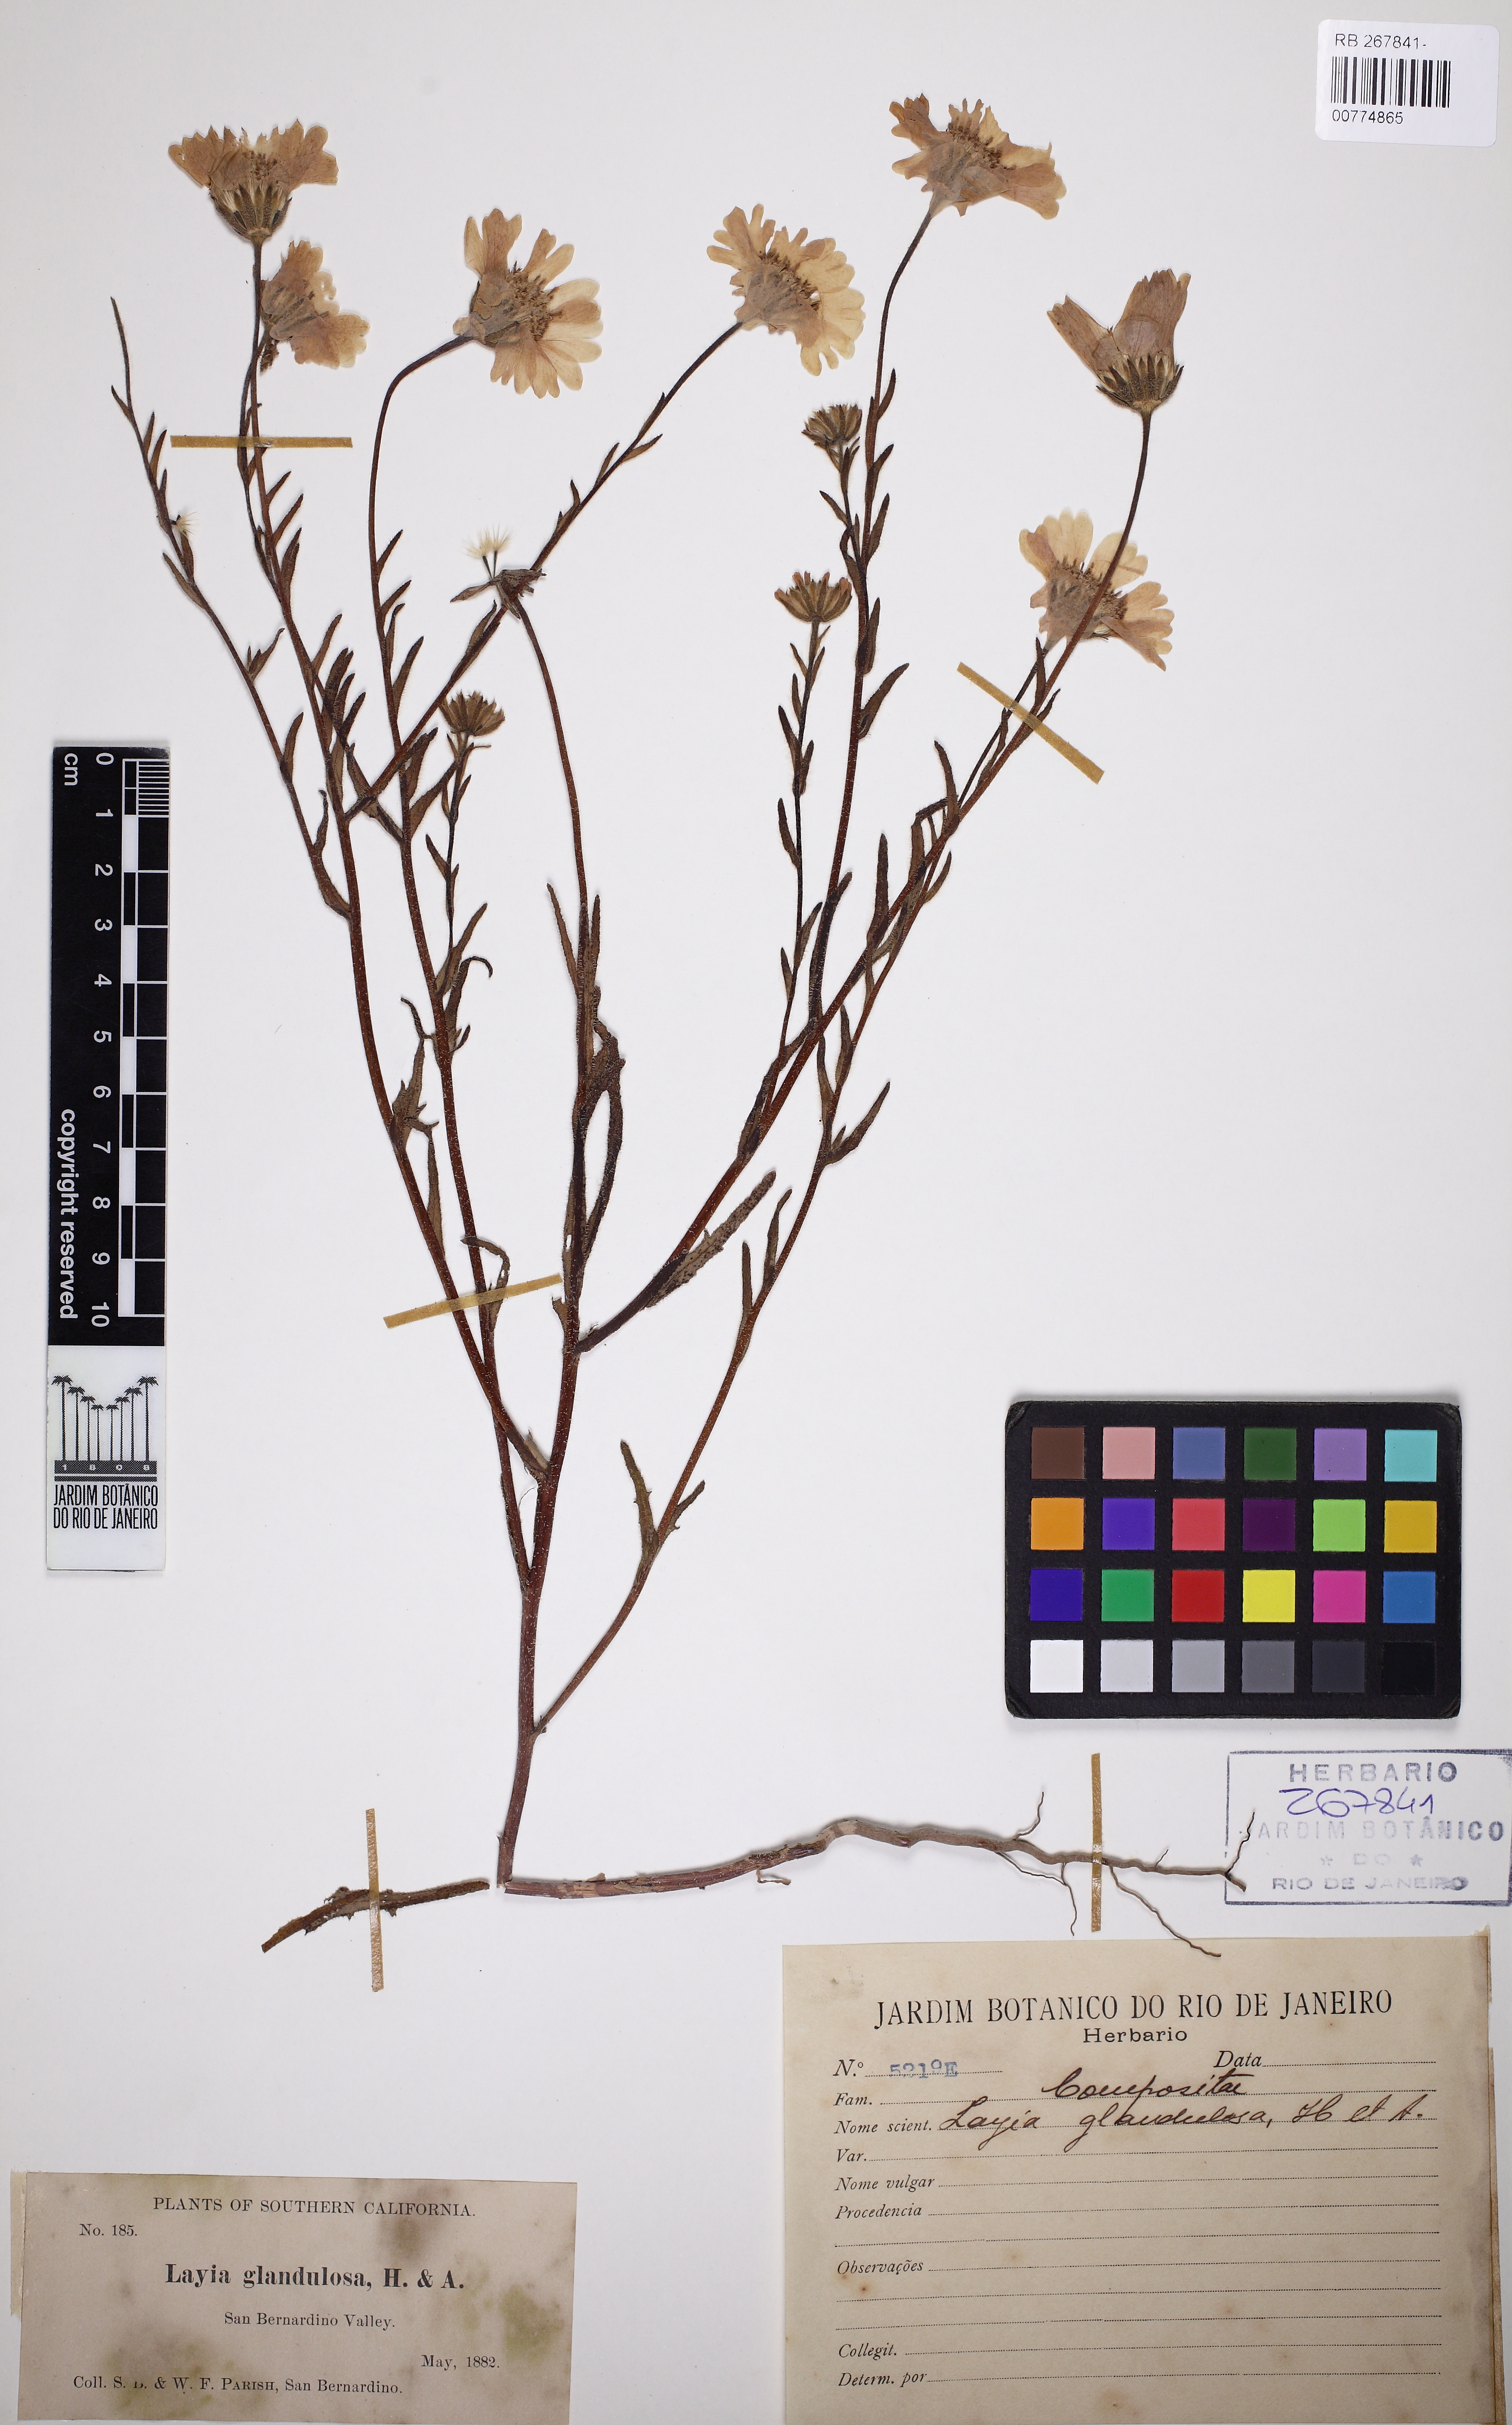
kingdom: Plantae
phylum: Tracheophyta
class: Magnoliopsida
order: Asterales
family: Asteraceae
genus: Layia
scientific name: Layia glandulosa
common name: White layia
